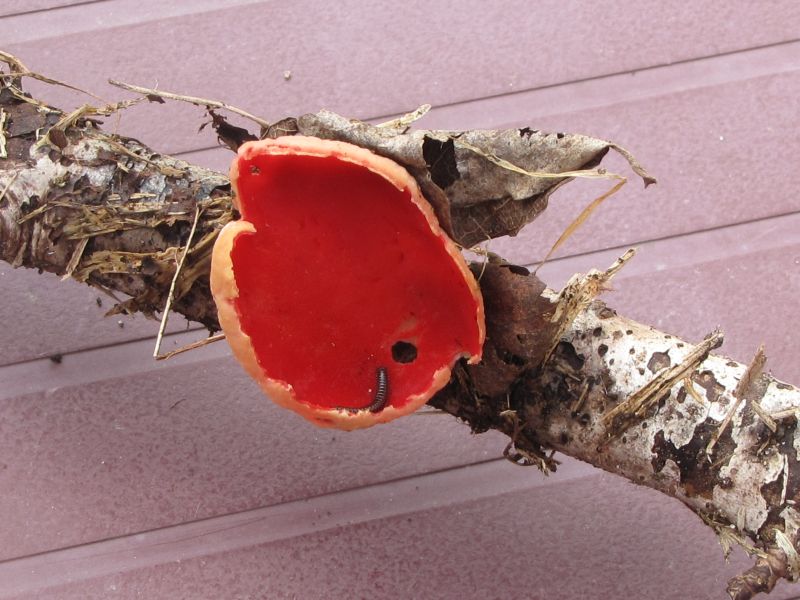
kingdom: Fungi
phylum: Ascomycota
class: Pezizomycetes
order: Pezizales
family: Sarcoscyphaceae
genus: Sarcoscypha
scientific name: Sarcoscypha austriaca
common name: krølhåret pragtbæger
